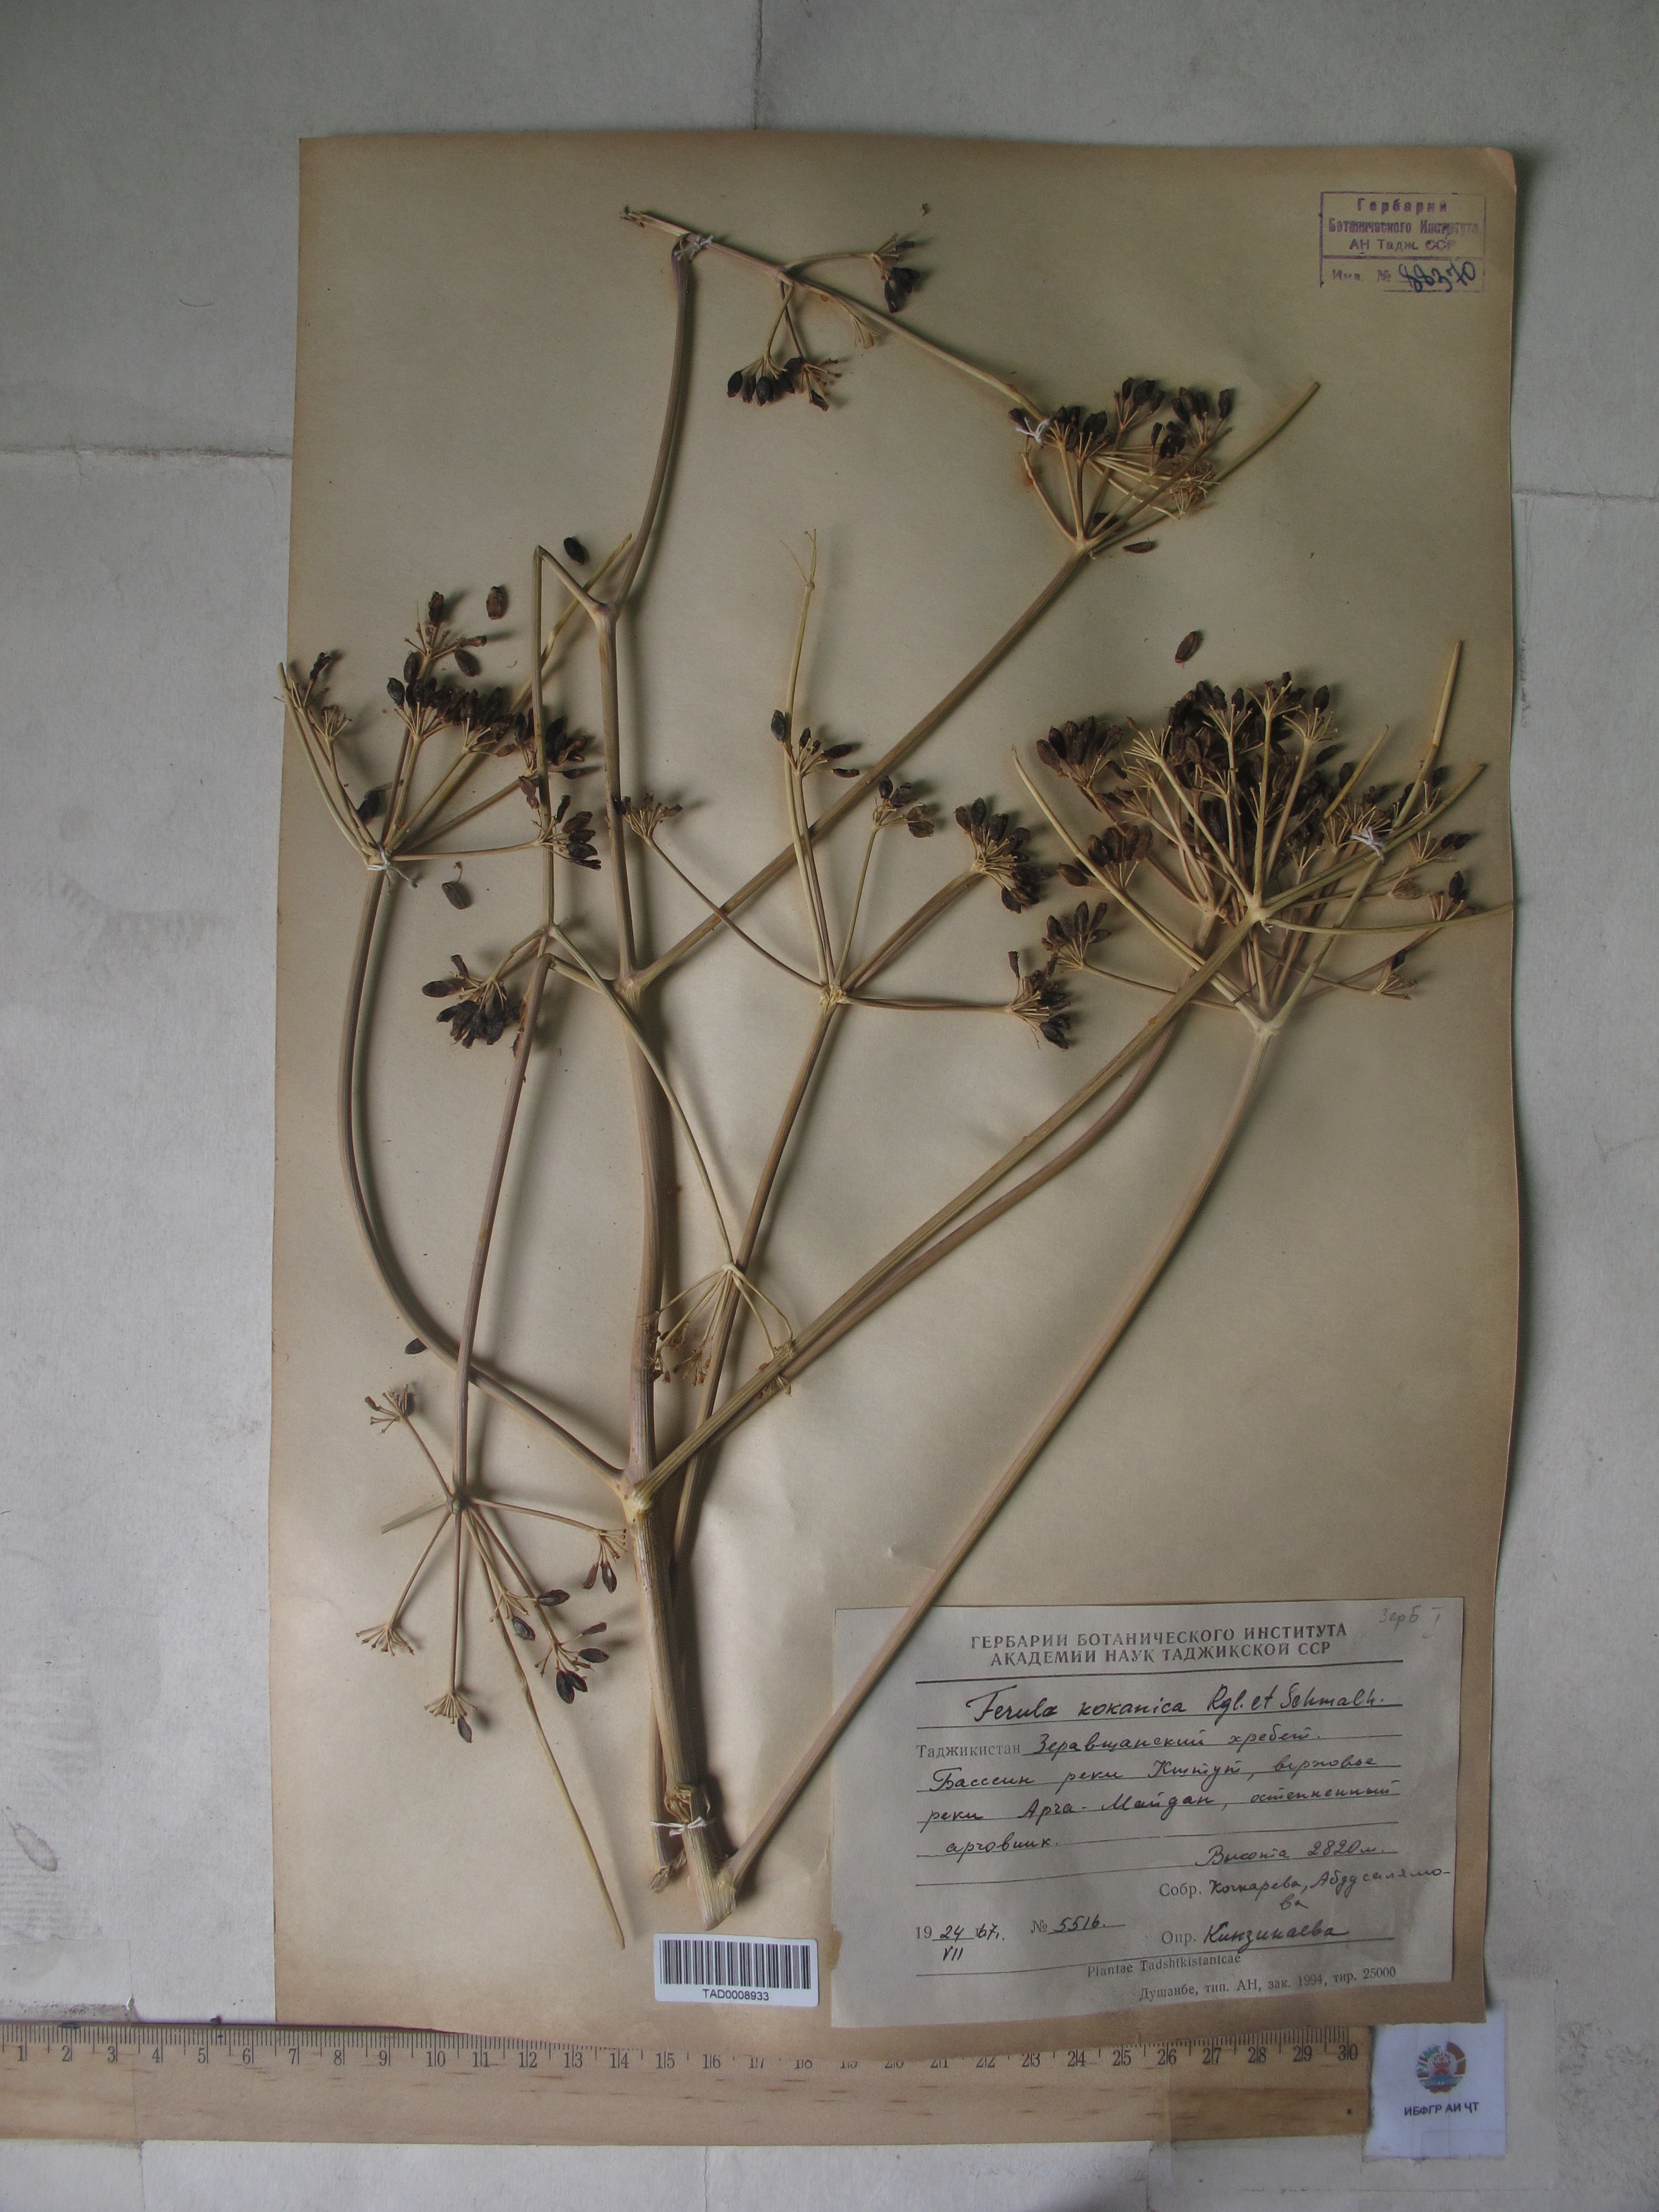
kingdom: Plantae
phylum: Tracheophyta
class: Magnoliopsida
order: Apiales
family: Apiaceae
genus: Ferula
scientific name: Ferula kokanica
